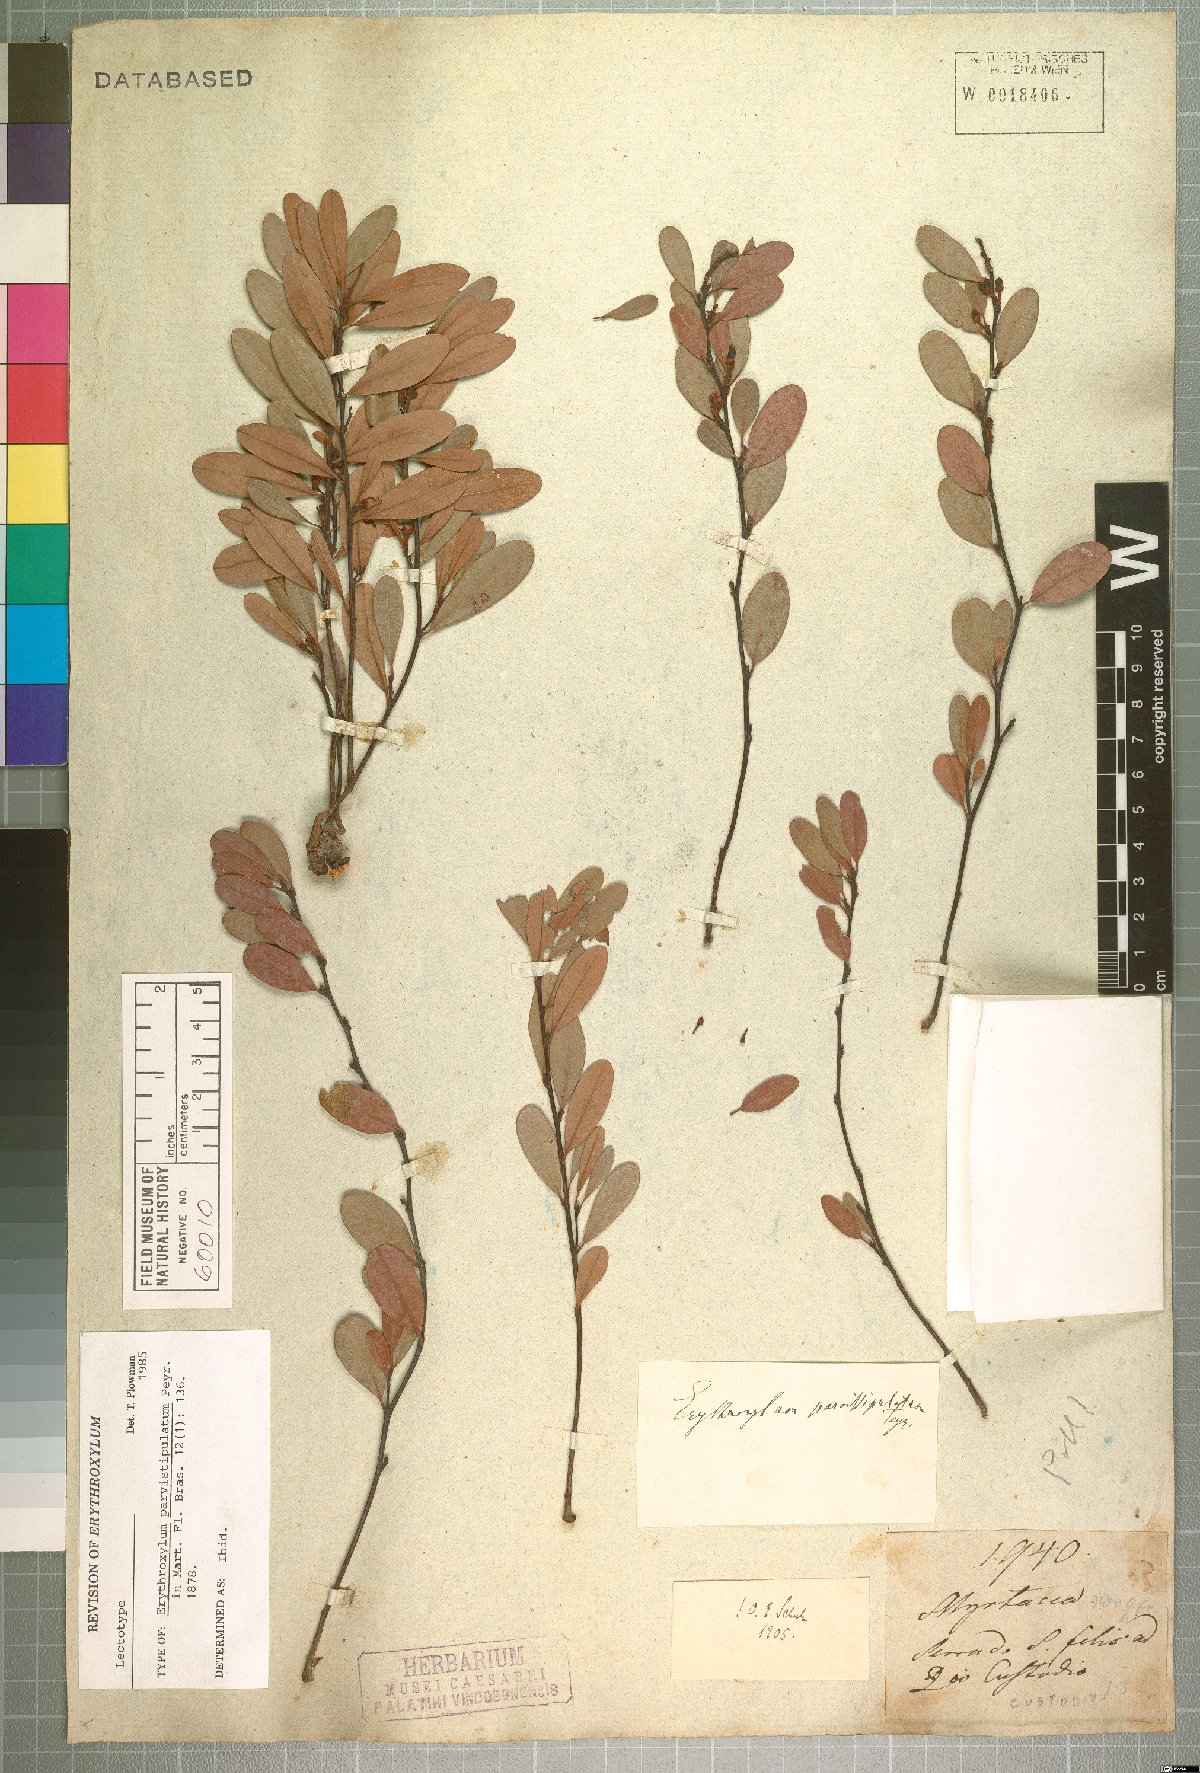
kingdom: Plantae
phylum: Tracheophyta
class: Magnoliopsida
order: Malpighiales
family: Erythroxylaceae
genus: Erythroxylum
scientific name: Erythroxylum parvistipulatum
